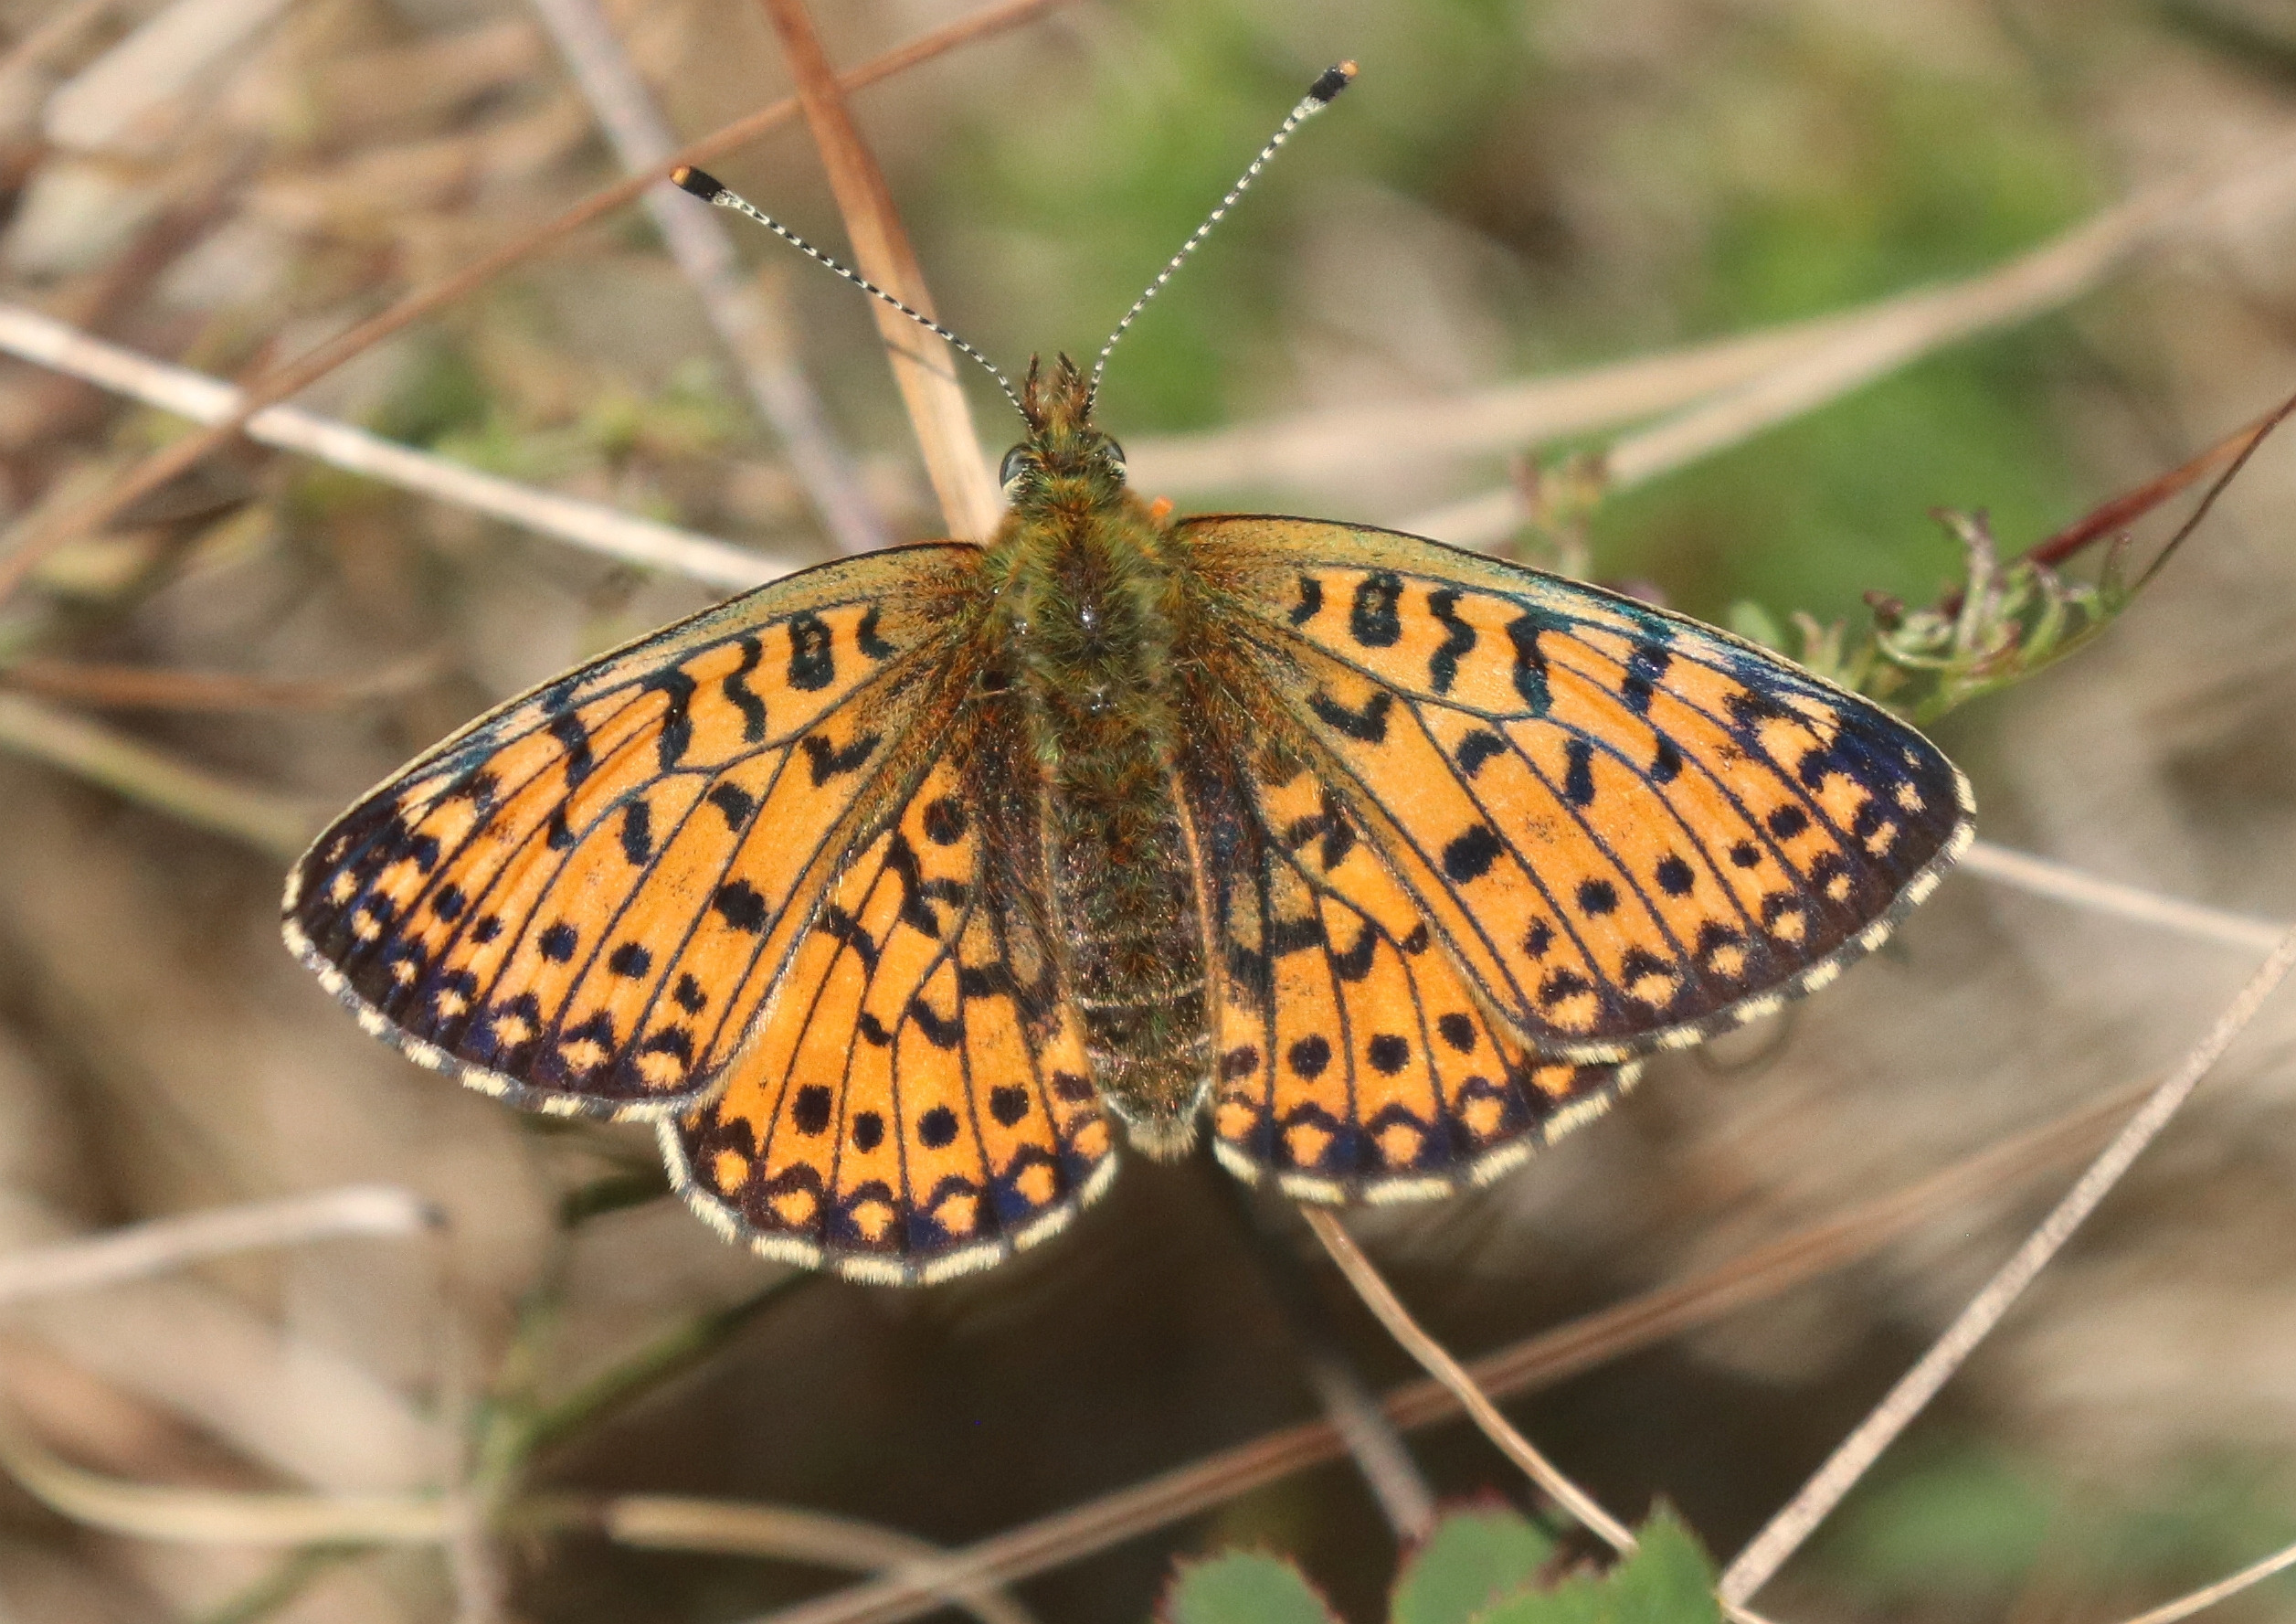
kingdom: Animalia
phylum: Arthropoda
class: Insecta
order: Lepidoptera
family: Nymphalidae
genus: Boloria
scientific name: Boloria selene
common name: Brunlig perlemorsommerfugl
